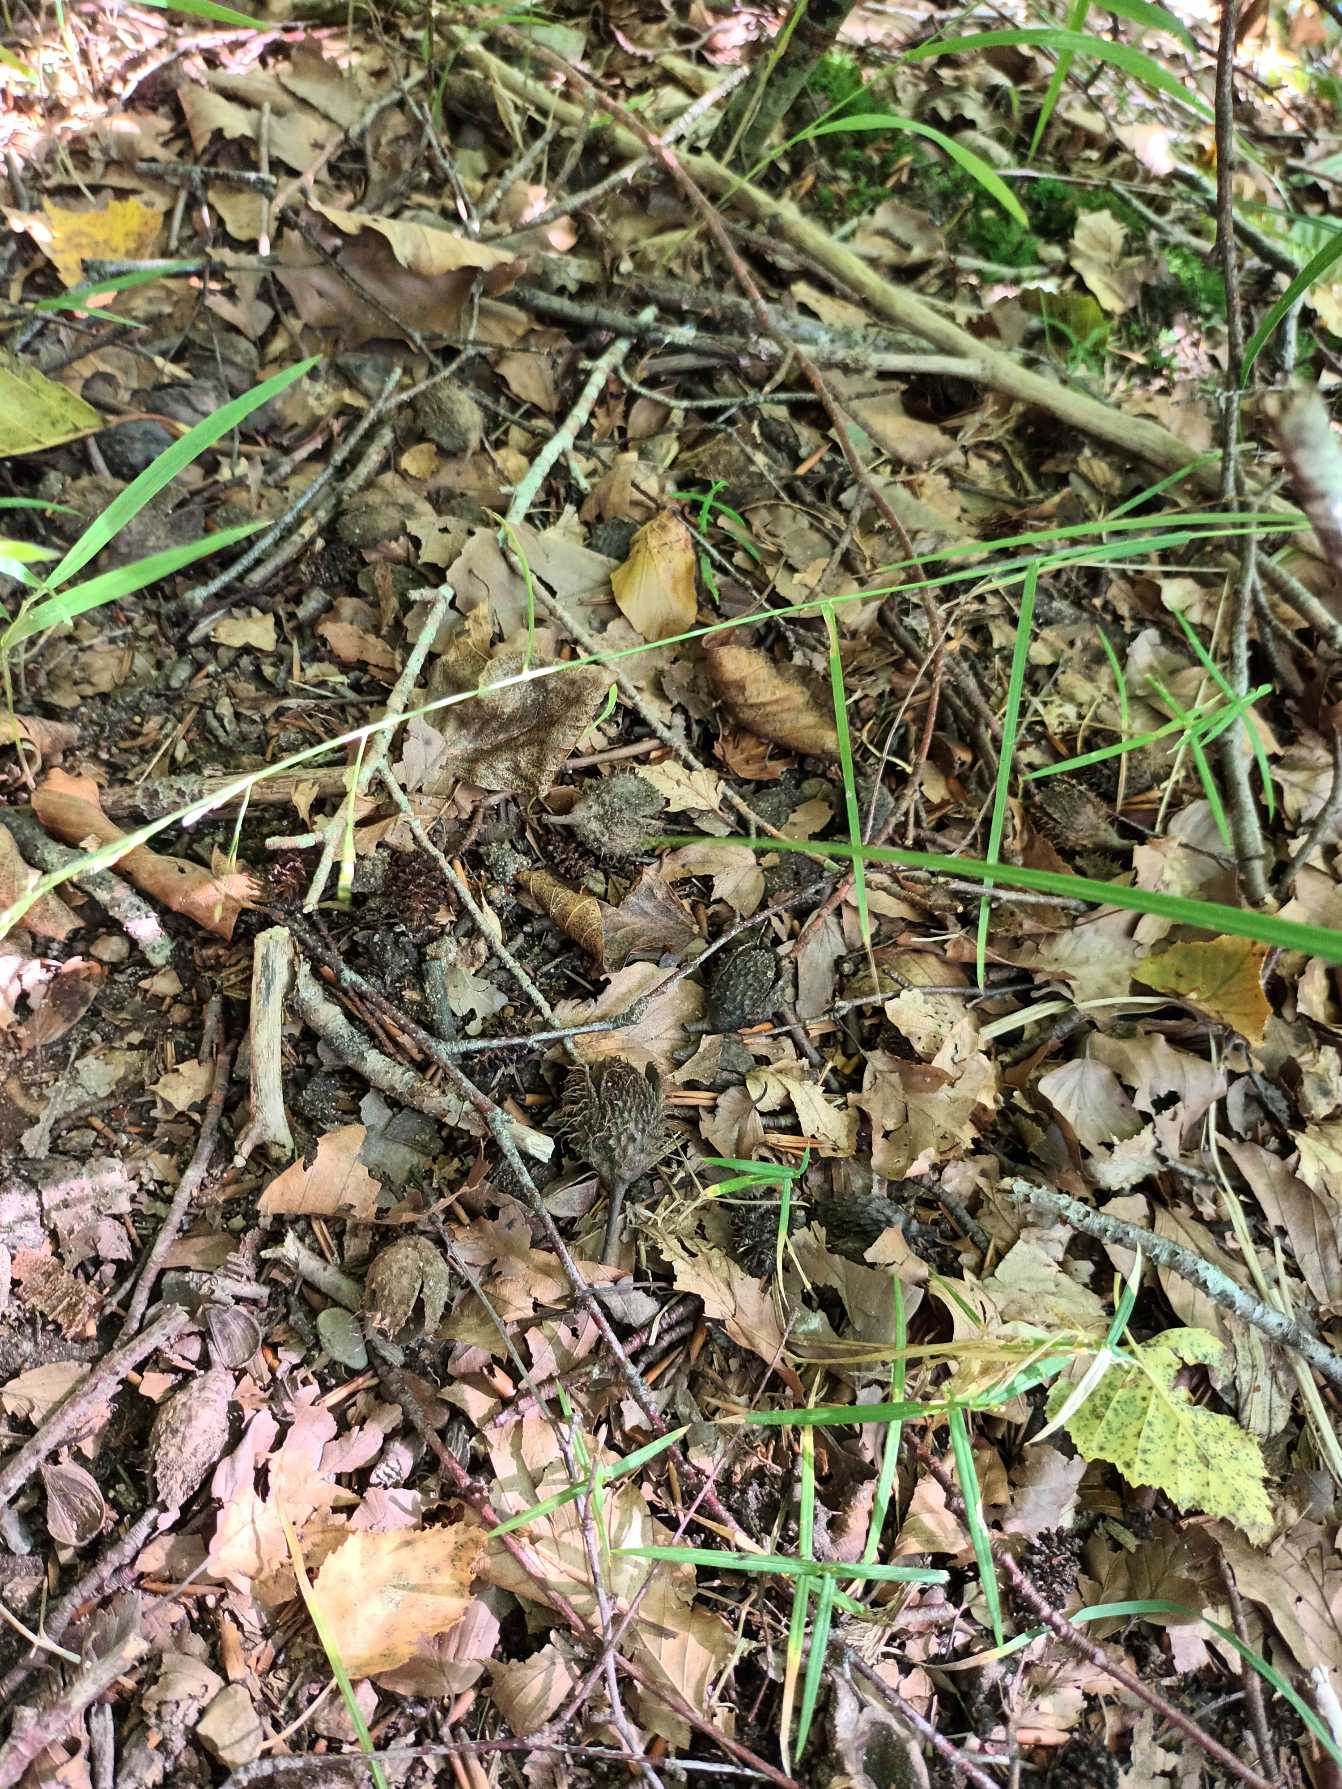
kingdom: Plantae
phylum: Tracheophyta
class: Liliopsida
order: Poales
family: Poaceae
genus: Poa
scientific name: Poa nemoralis
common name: Lund-rapgræs
